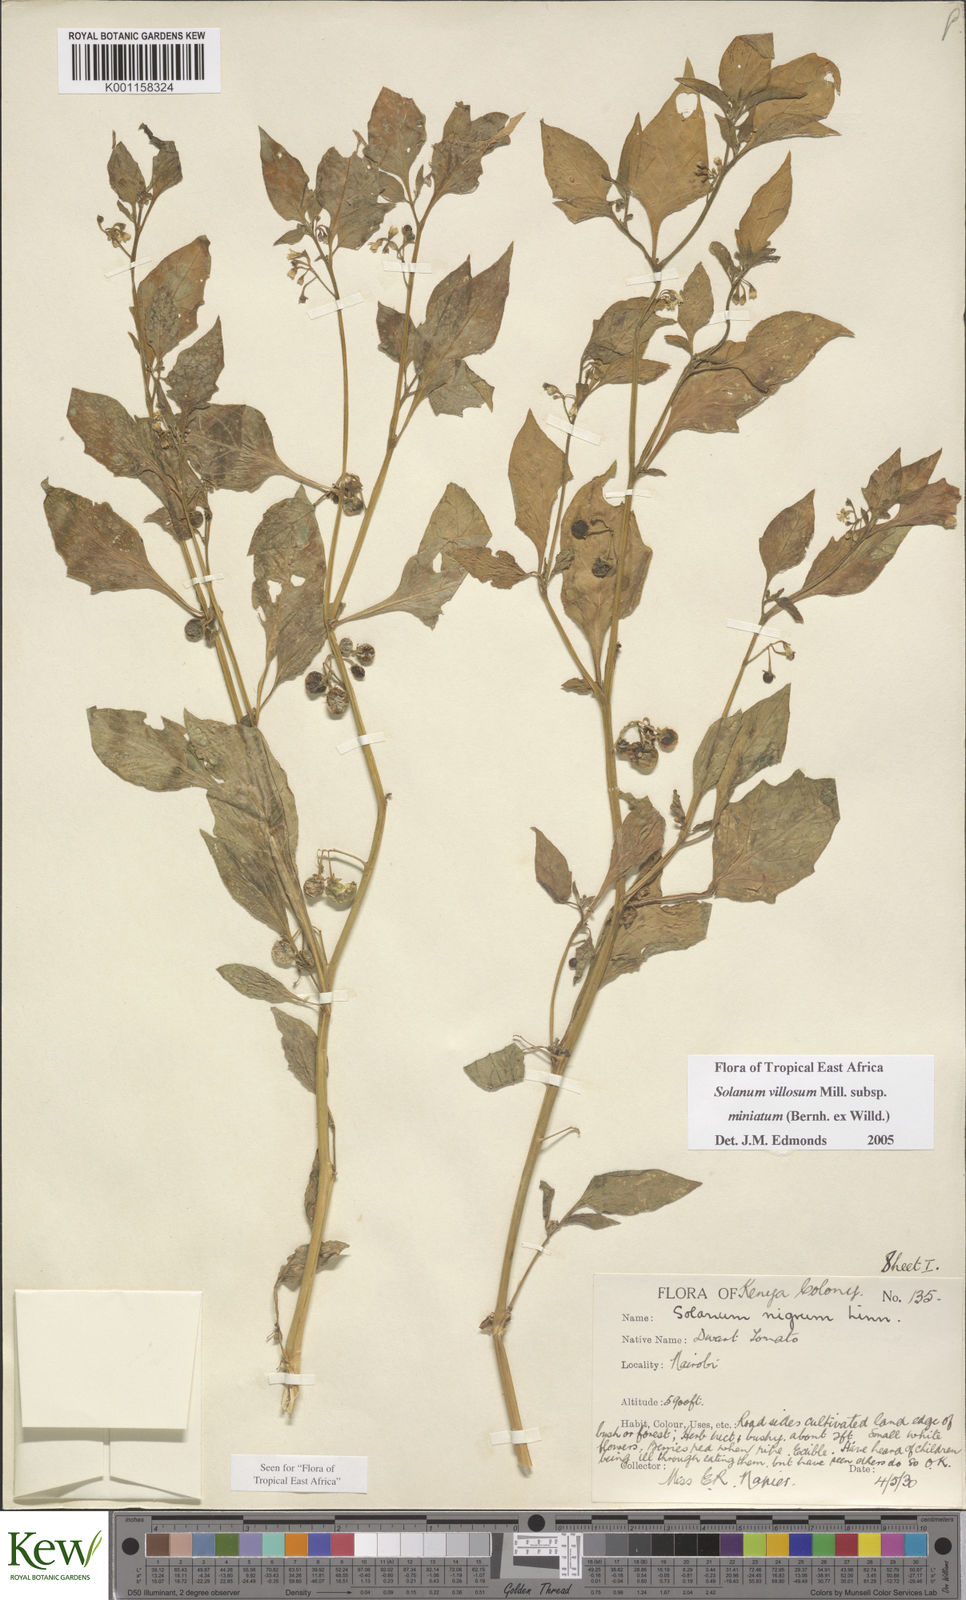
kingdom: Plantae
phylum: Tracheophyta
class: Magnoliopsida
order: Solanales
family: Solanaceae
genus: Solanum
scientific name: Solanum villosum
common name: Red nightshade
